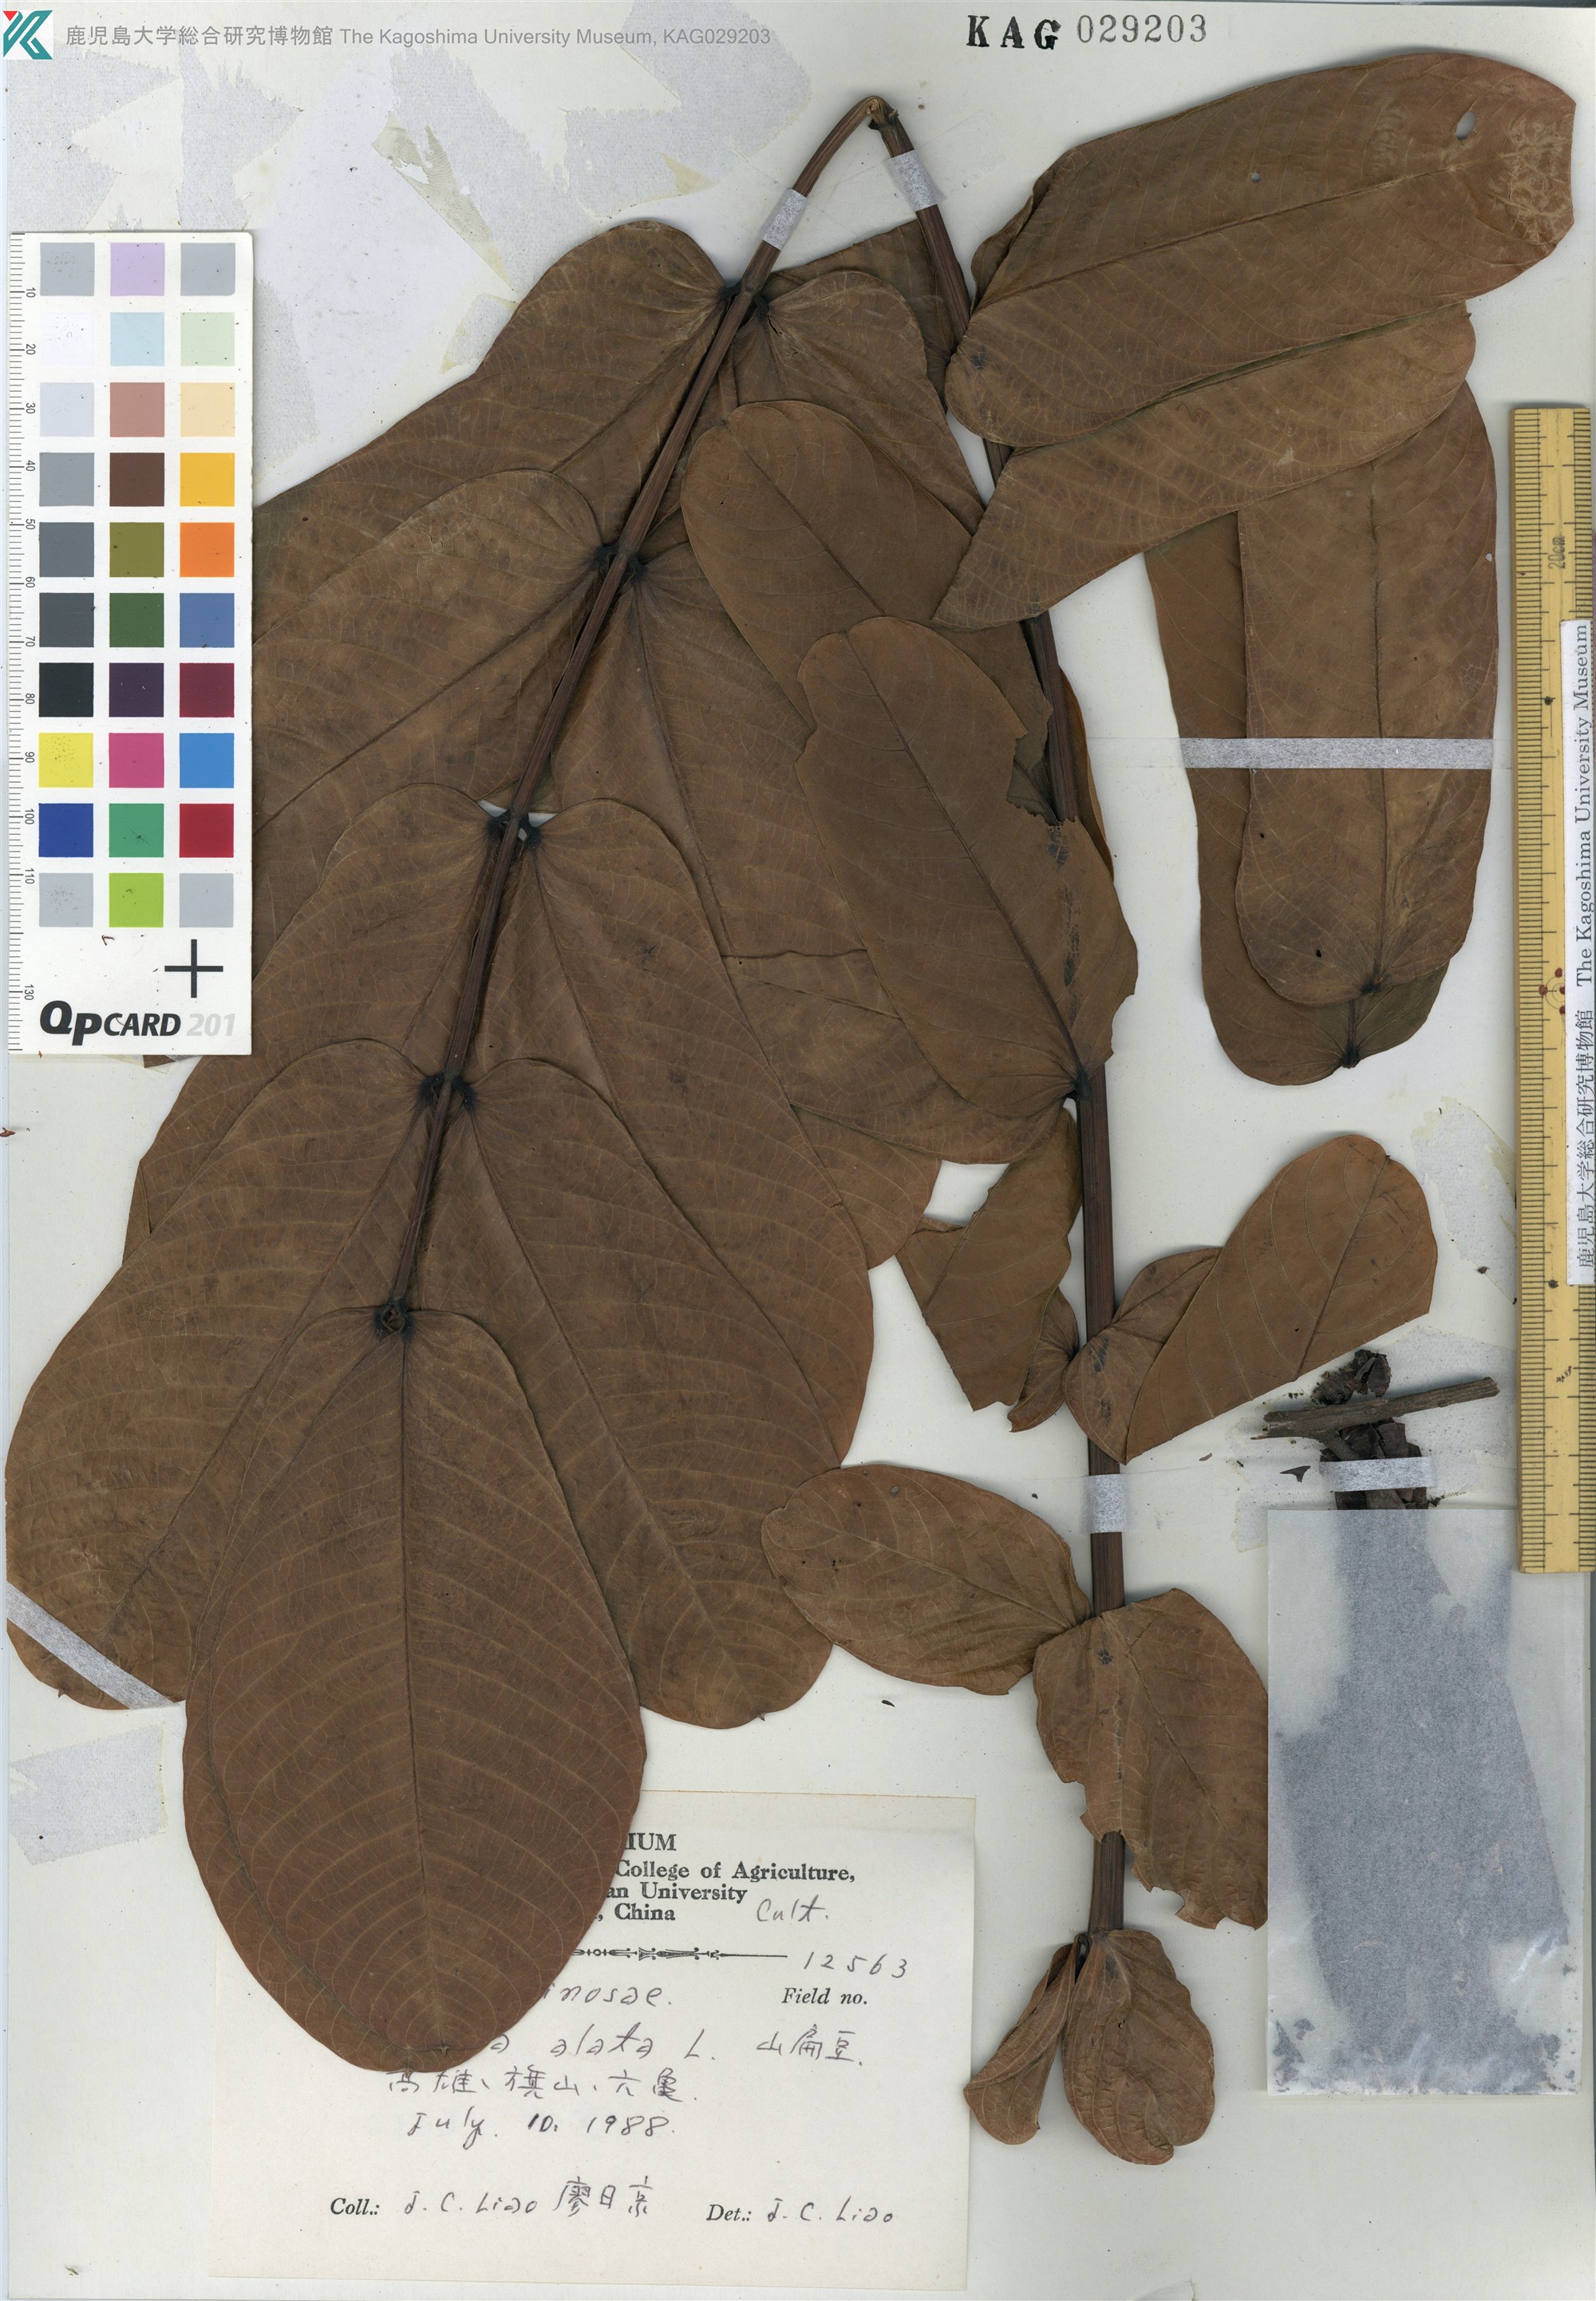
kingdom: Plantae
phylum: Tracheophyta
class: Magnoliopsida
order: Fabales
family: Fabaceae
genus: Senna
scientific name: Senna alata
